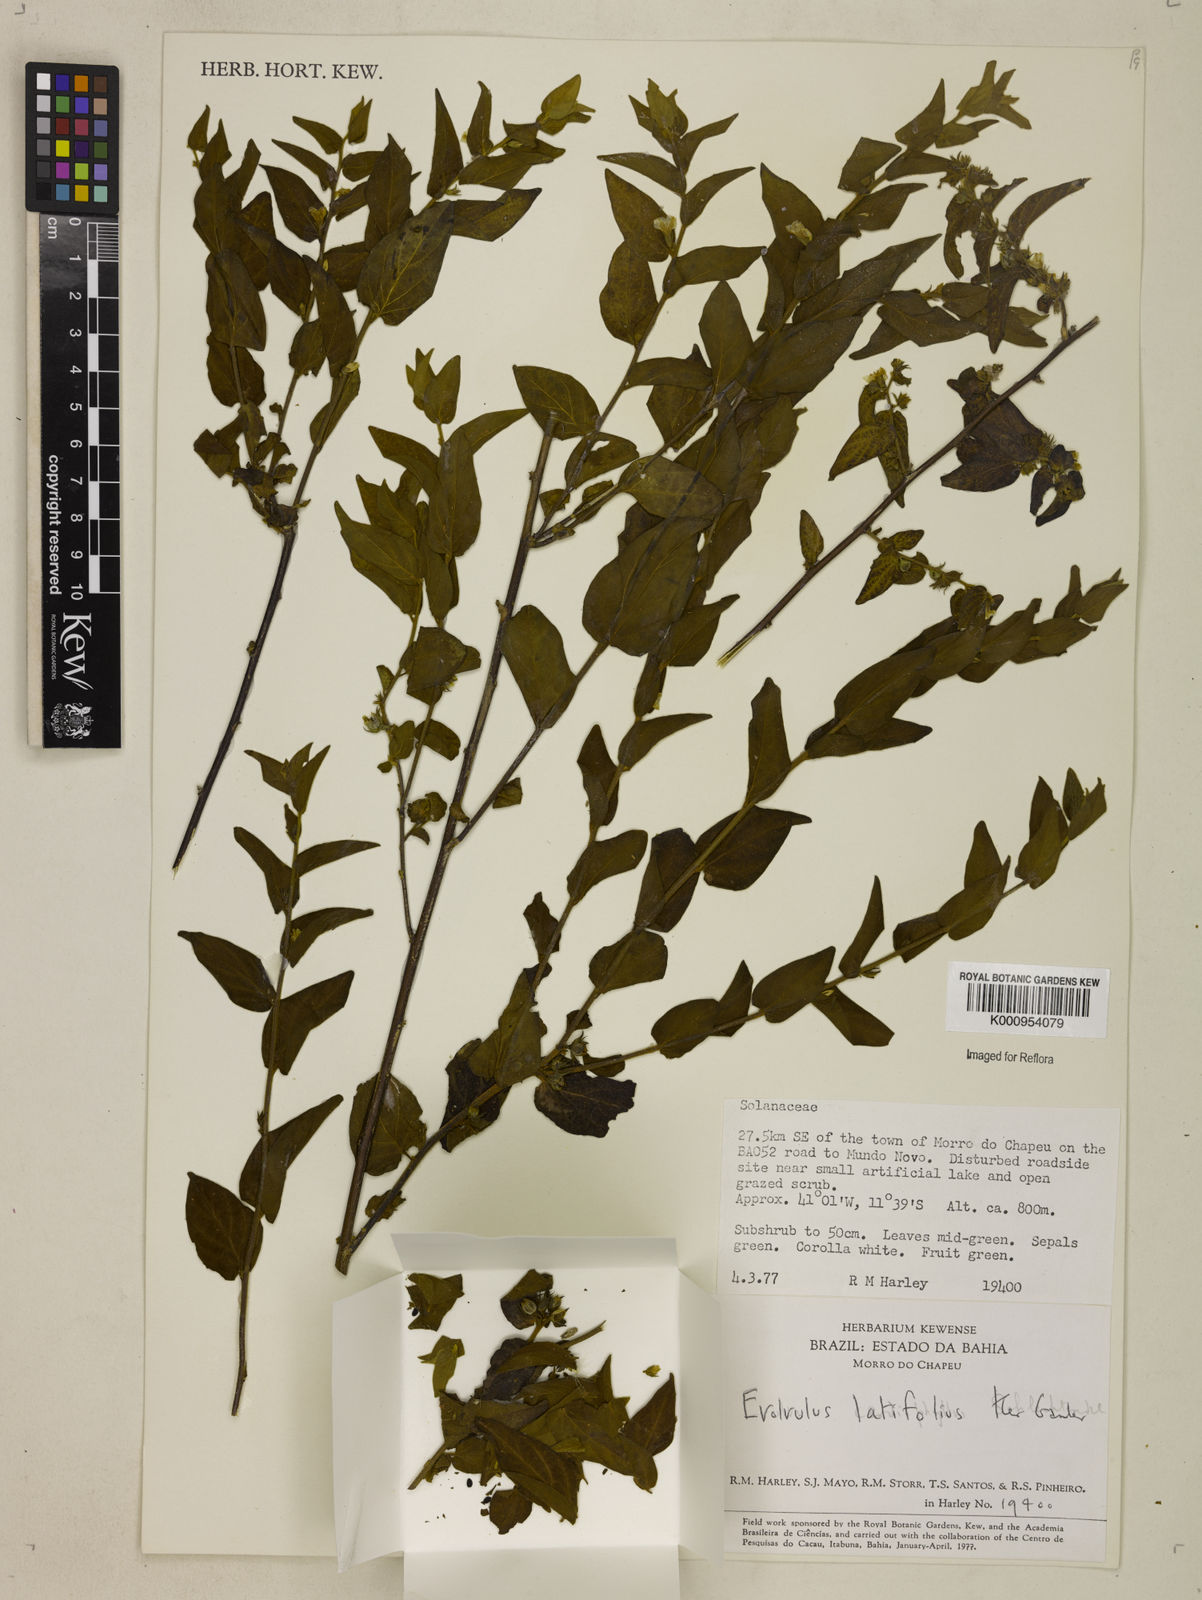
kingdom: Plantae
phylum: Tracheophyta
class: Magnoliopsida
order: Solanales
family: Convolvulaceae
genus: Evolvulus
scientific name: Evolvulus latifolius
